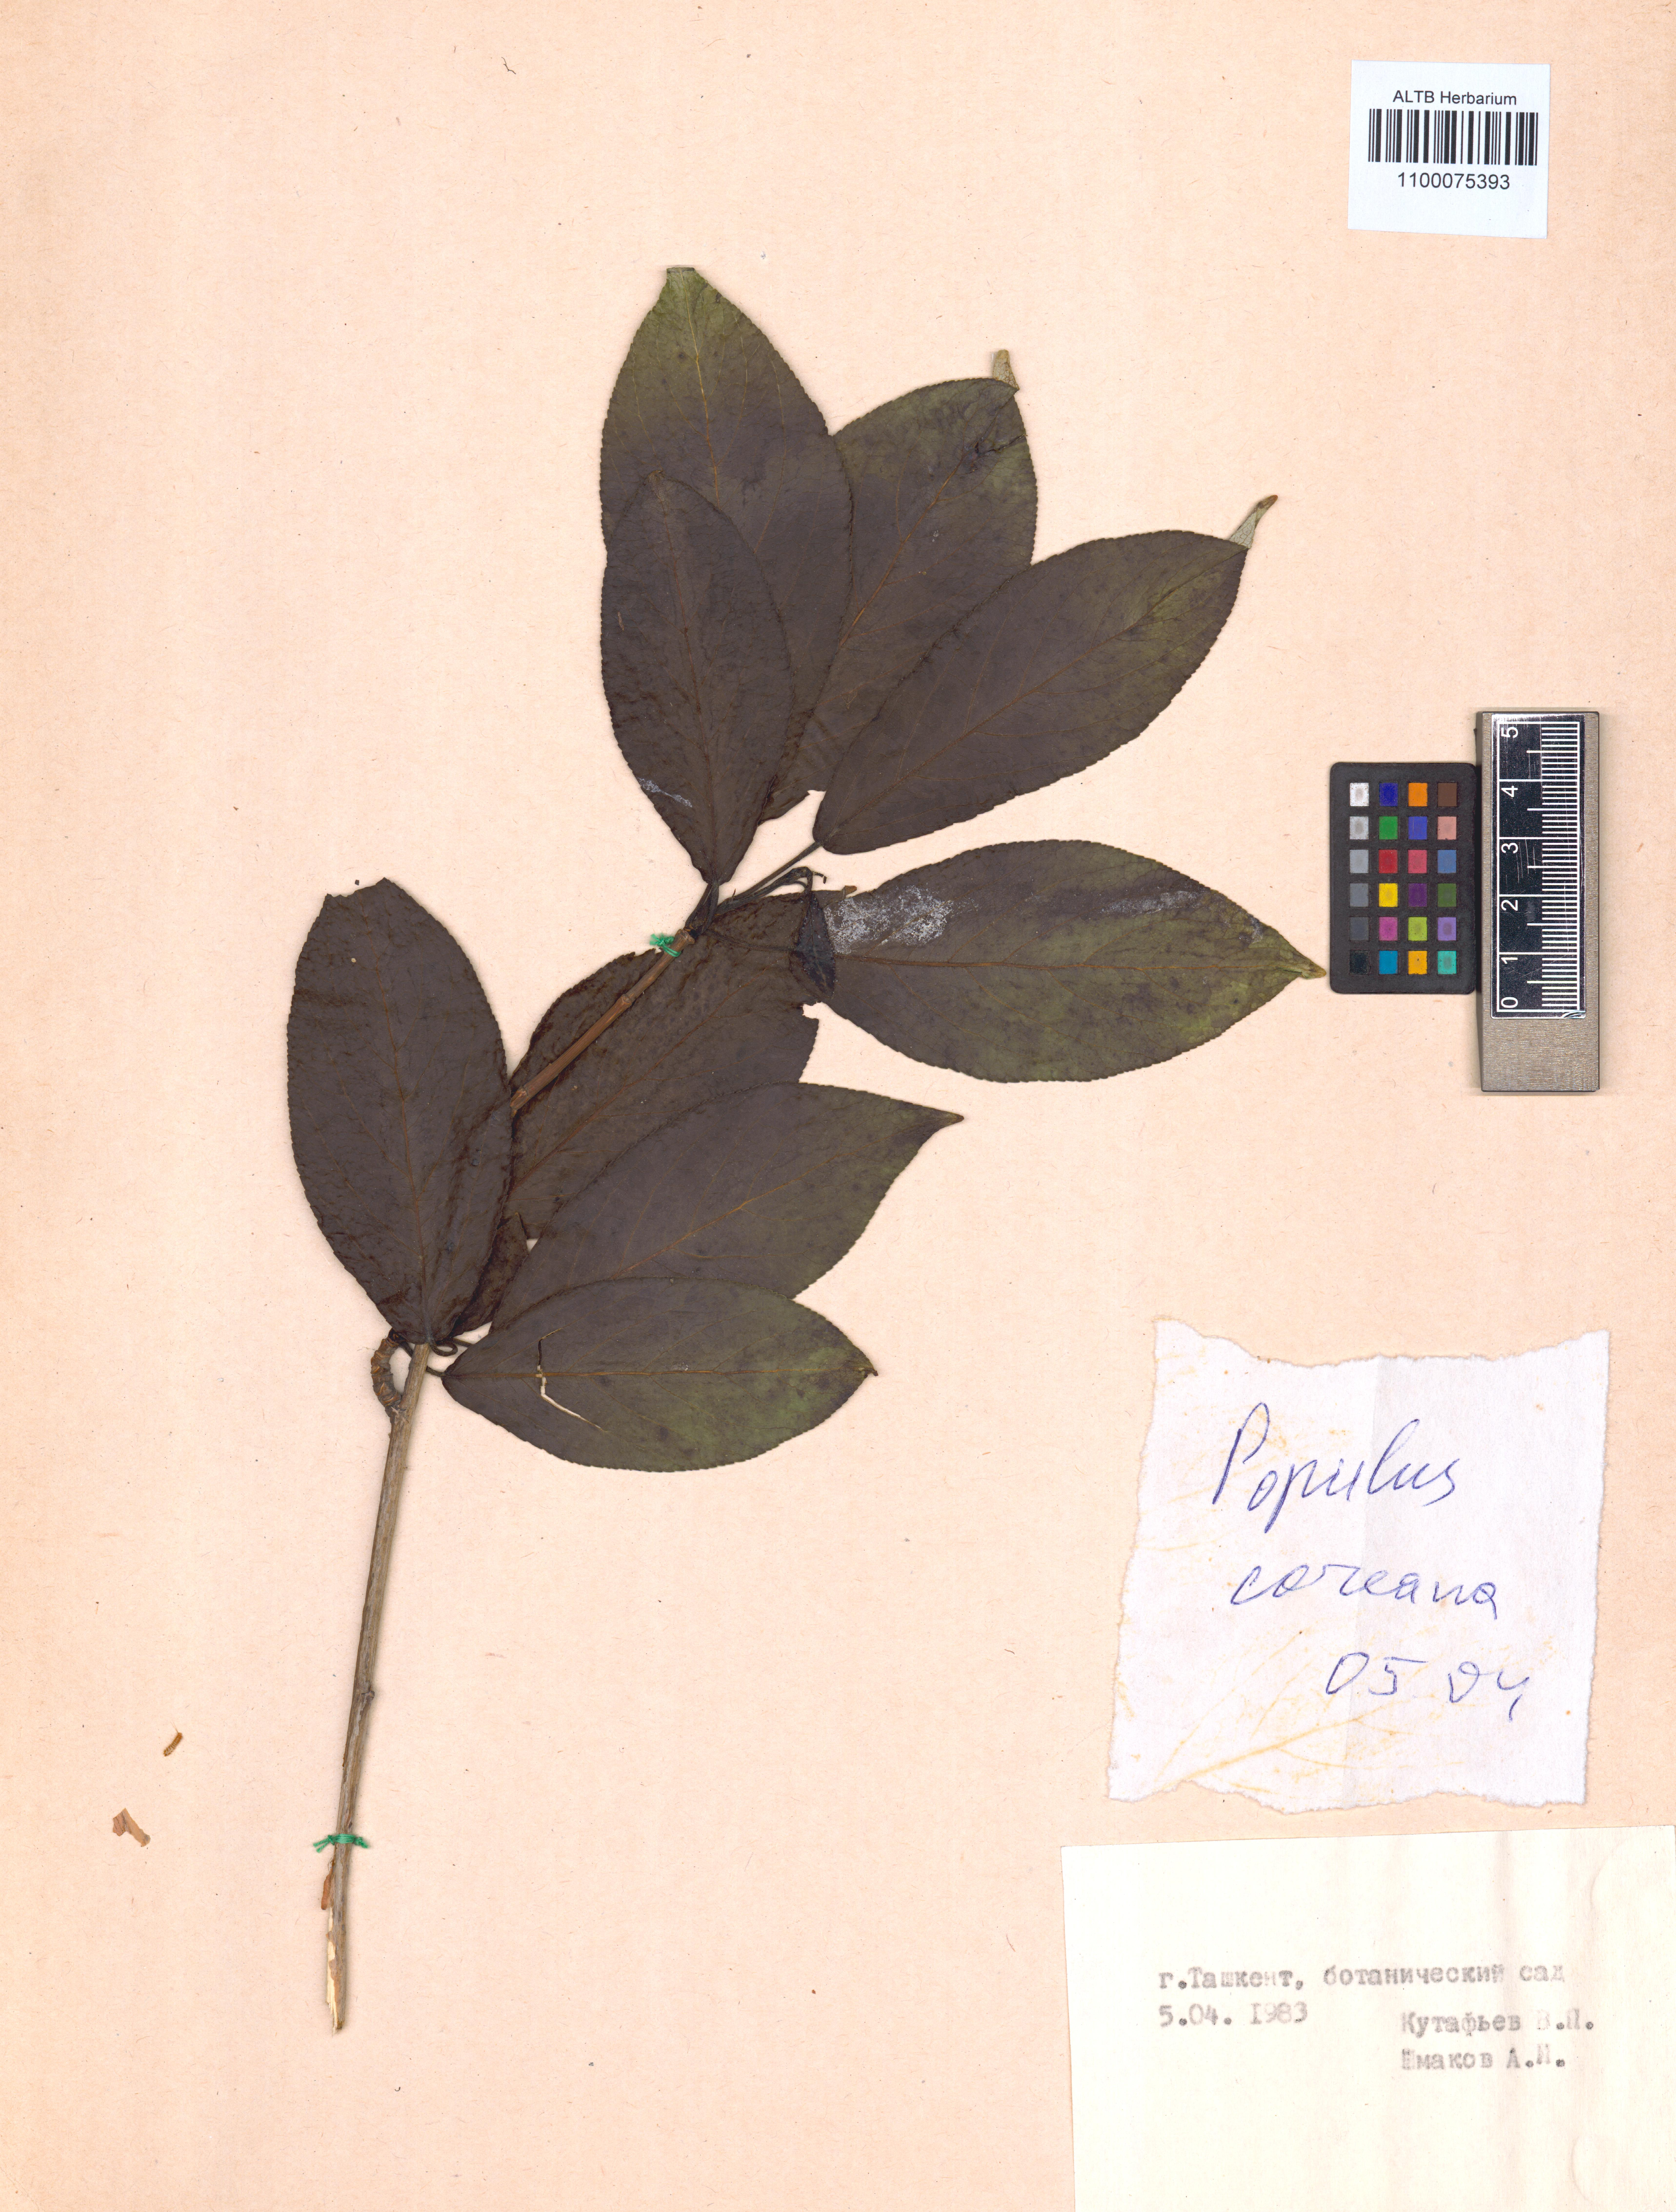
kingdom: Plantae
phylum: Tracheophyta
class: Magnoliopsida
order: Malpighiales
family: Salicaceae
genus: Populus
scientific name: Populus suaveolens
